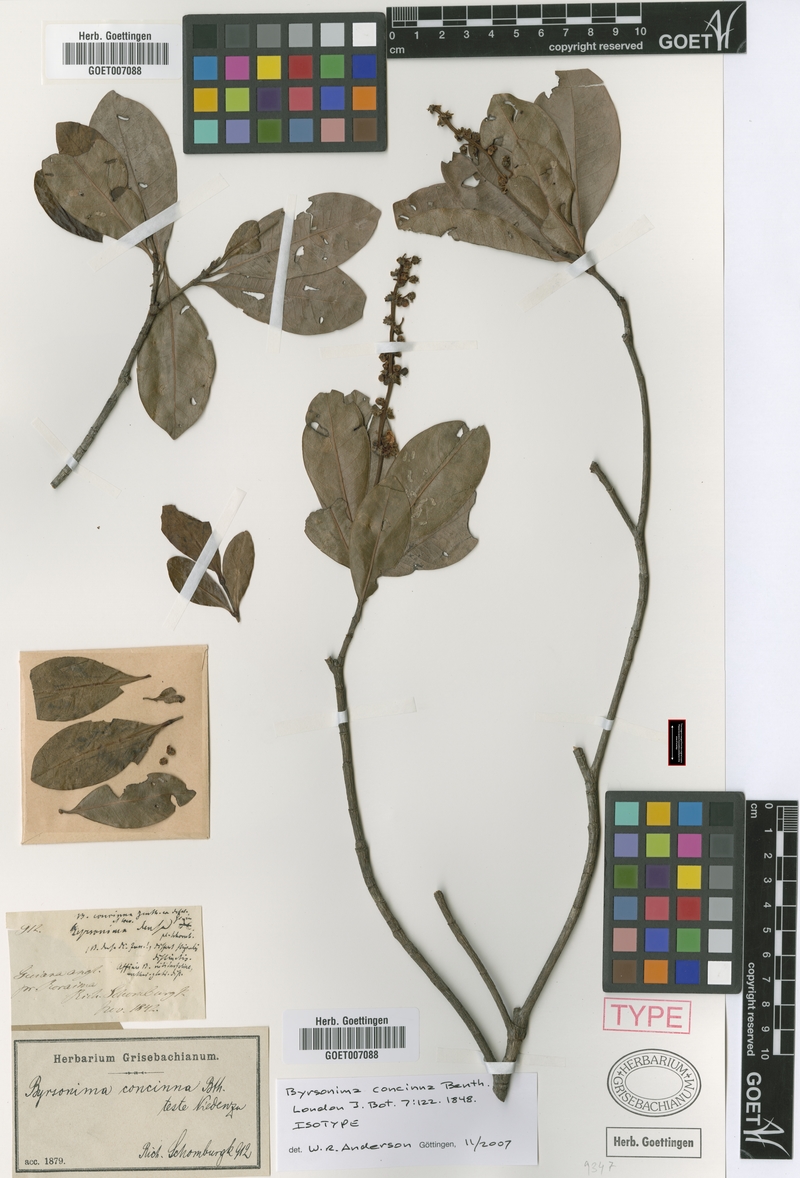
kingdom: Plantae
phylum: Tracheophyta
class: Magnoliopsida
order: Malpighiales
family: Malpighiaceae
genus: Byrsonima
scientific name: Byrsonima concinna
